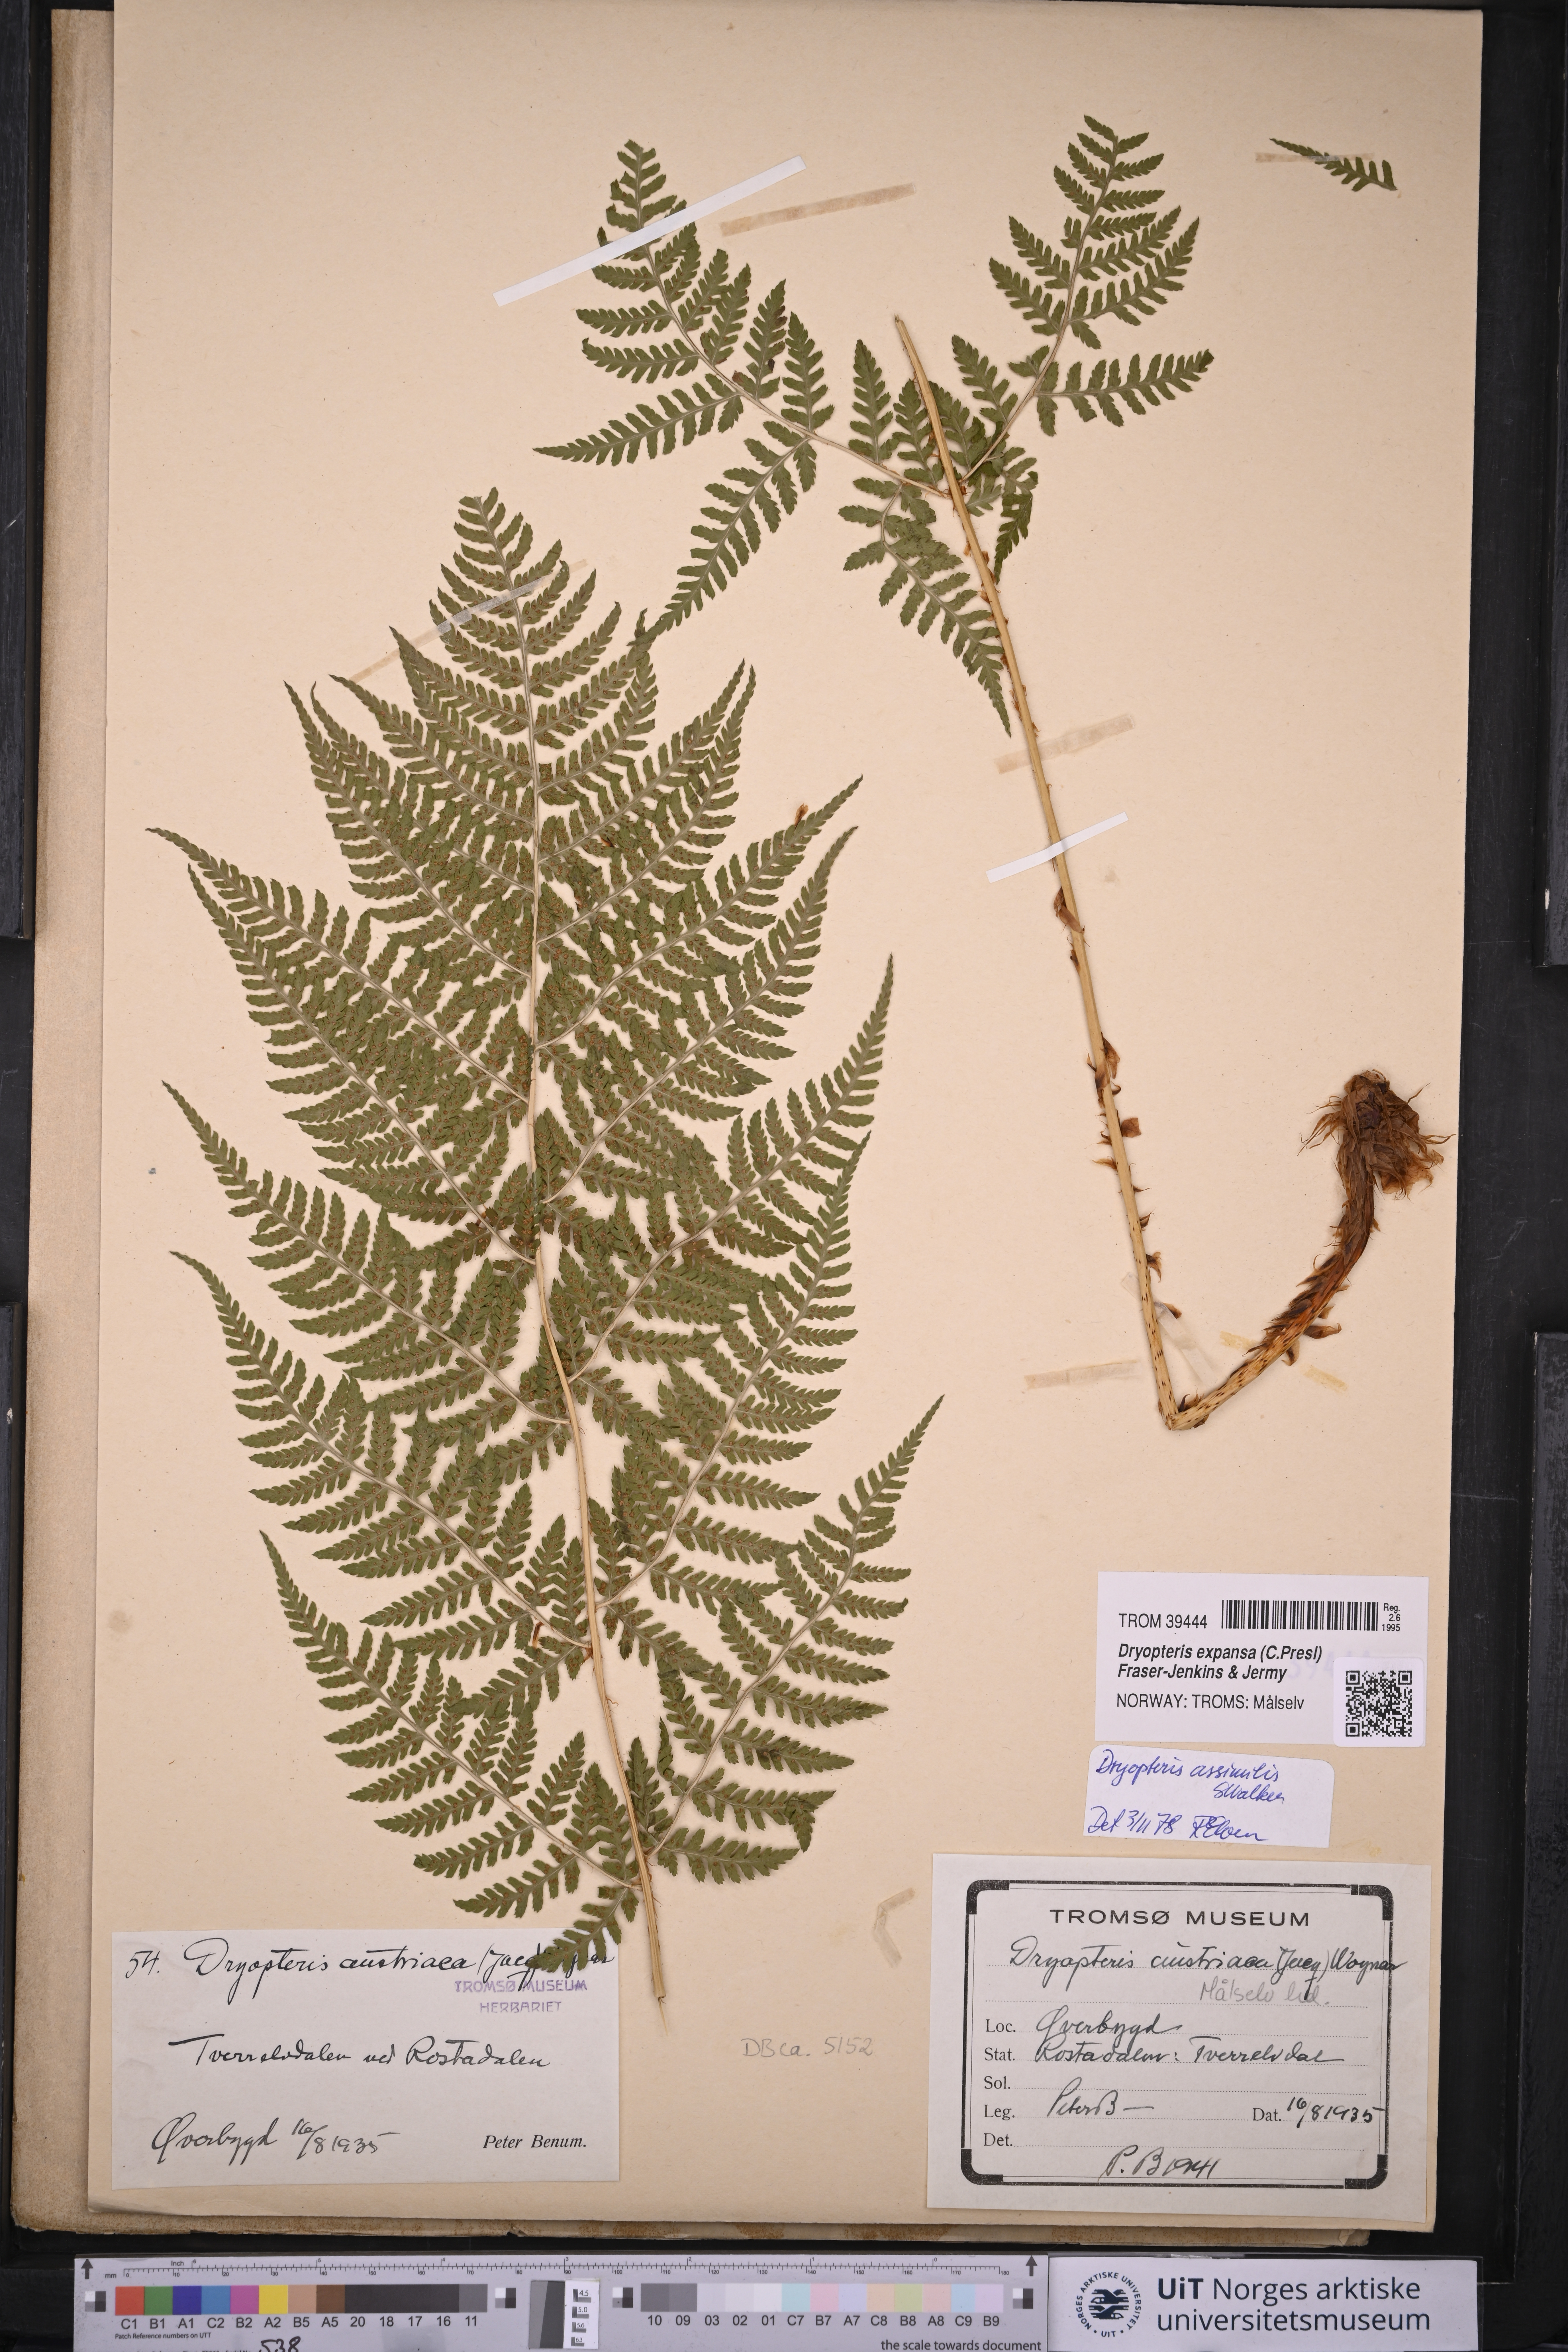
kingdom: Plantae
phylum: Tracheophyta
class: Polypodiopsida
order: Polypodiales
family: Dryopteridaceae
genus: Dryopteris
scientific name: Dryopteris expansa
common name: Northern buckler fern
